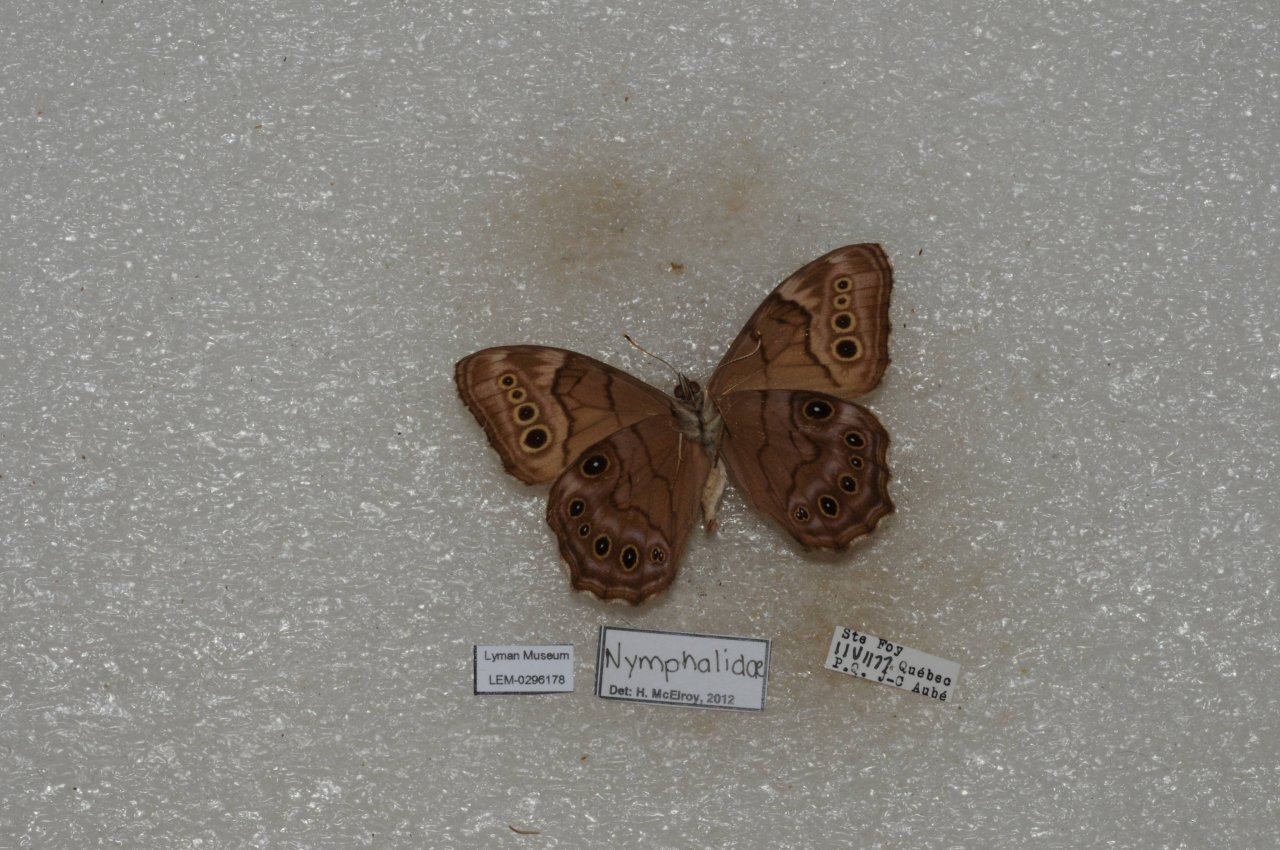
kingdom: Animalia
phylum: Arthropoda
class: Insecta
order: Lepidoptera
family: Nymphalidae
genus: Lethe
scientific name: Lethe anthedon
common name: Northern Pearly-Eye
